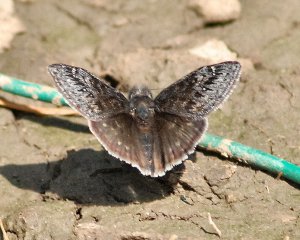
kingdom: Animalia
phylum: Arthropoda
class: Insecta
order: Lepidoptera
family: Hesperiidae
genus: Gesta
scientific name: Gesta
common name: Persius Duskywing
